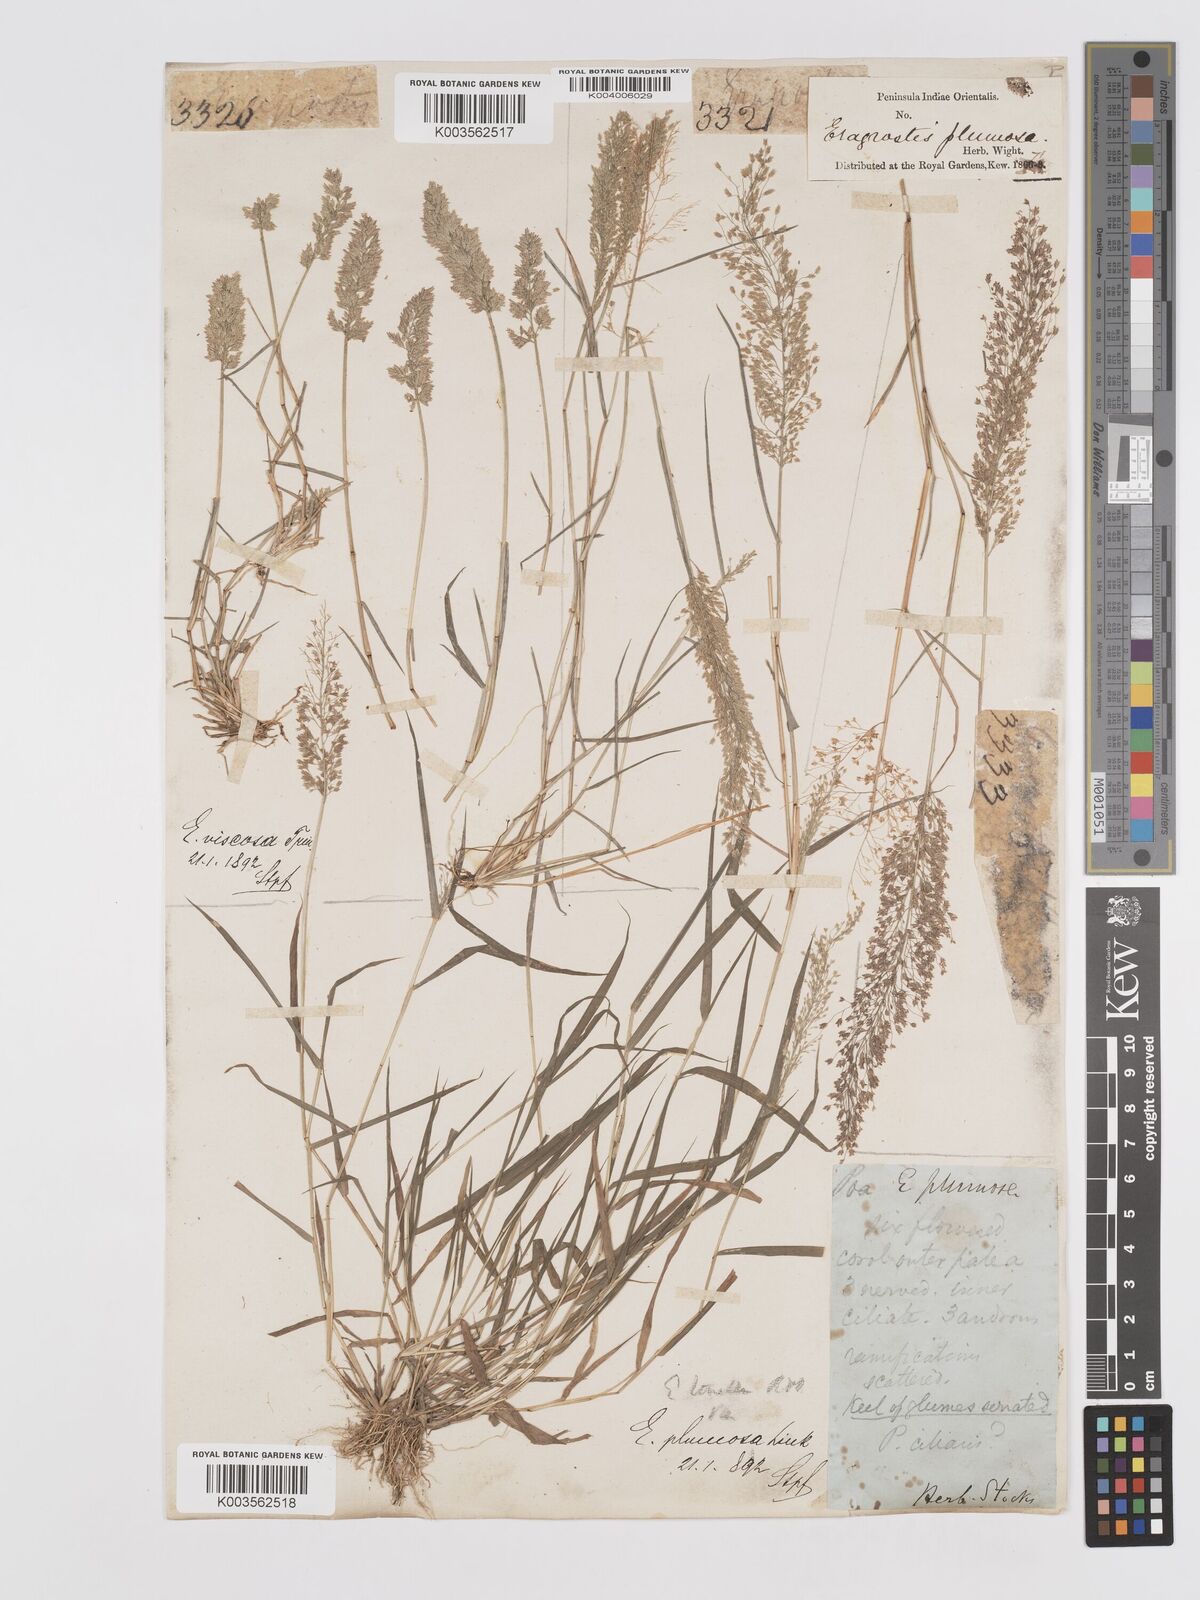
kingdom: Plantae
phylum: Tracheophyta
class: Liliopsida
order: Poales
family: Poaceae
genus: Eragrostis
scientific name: Eragrostis tenella
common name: Japanese lovegrass
